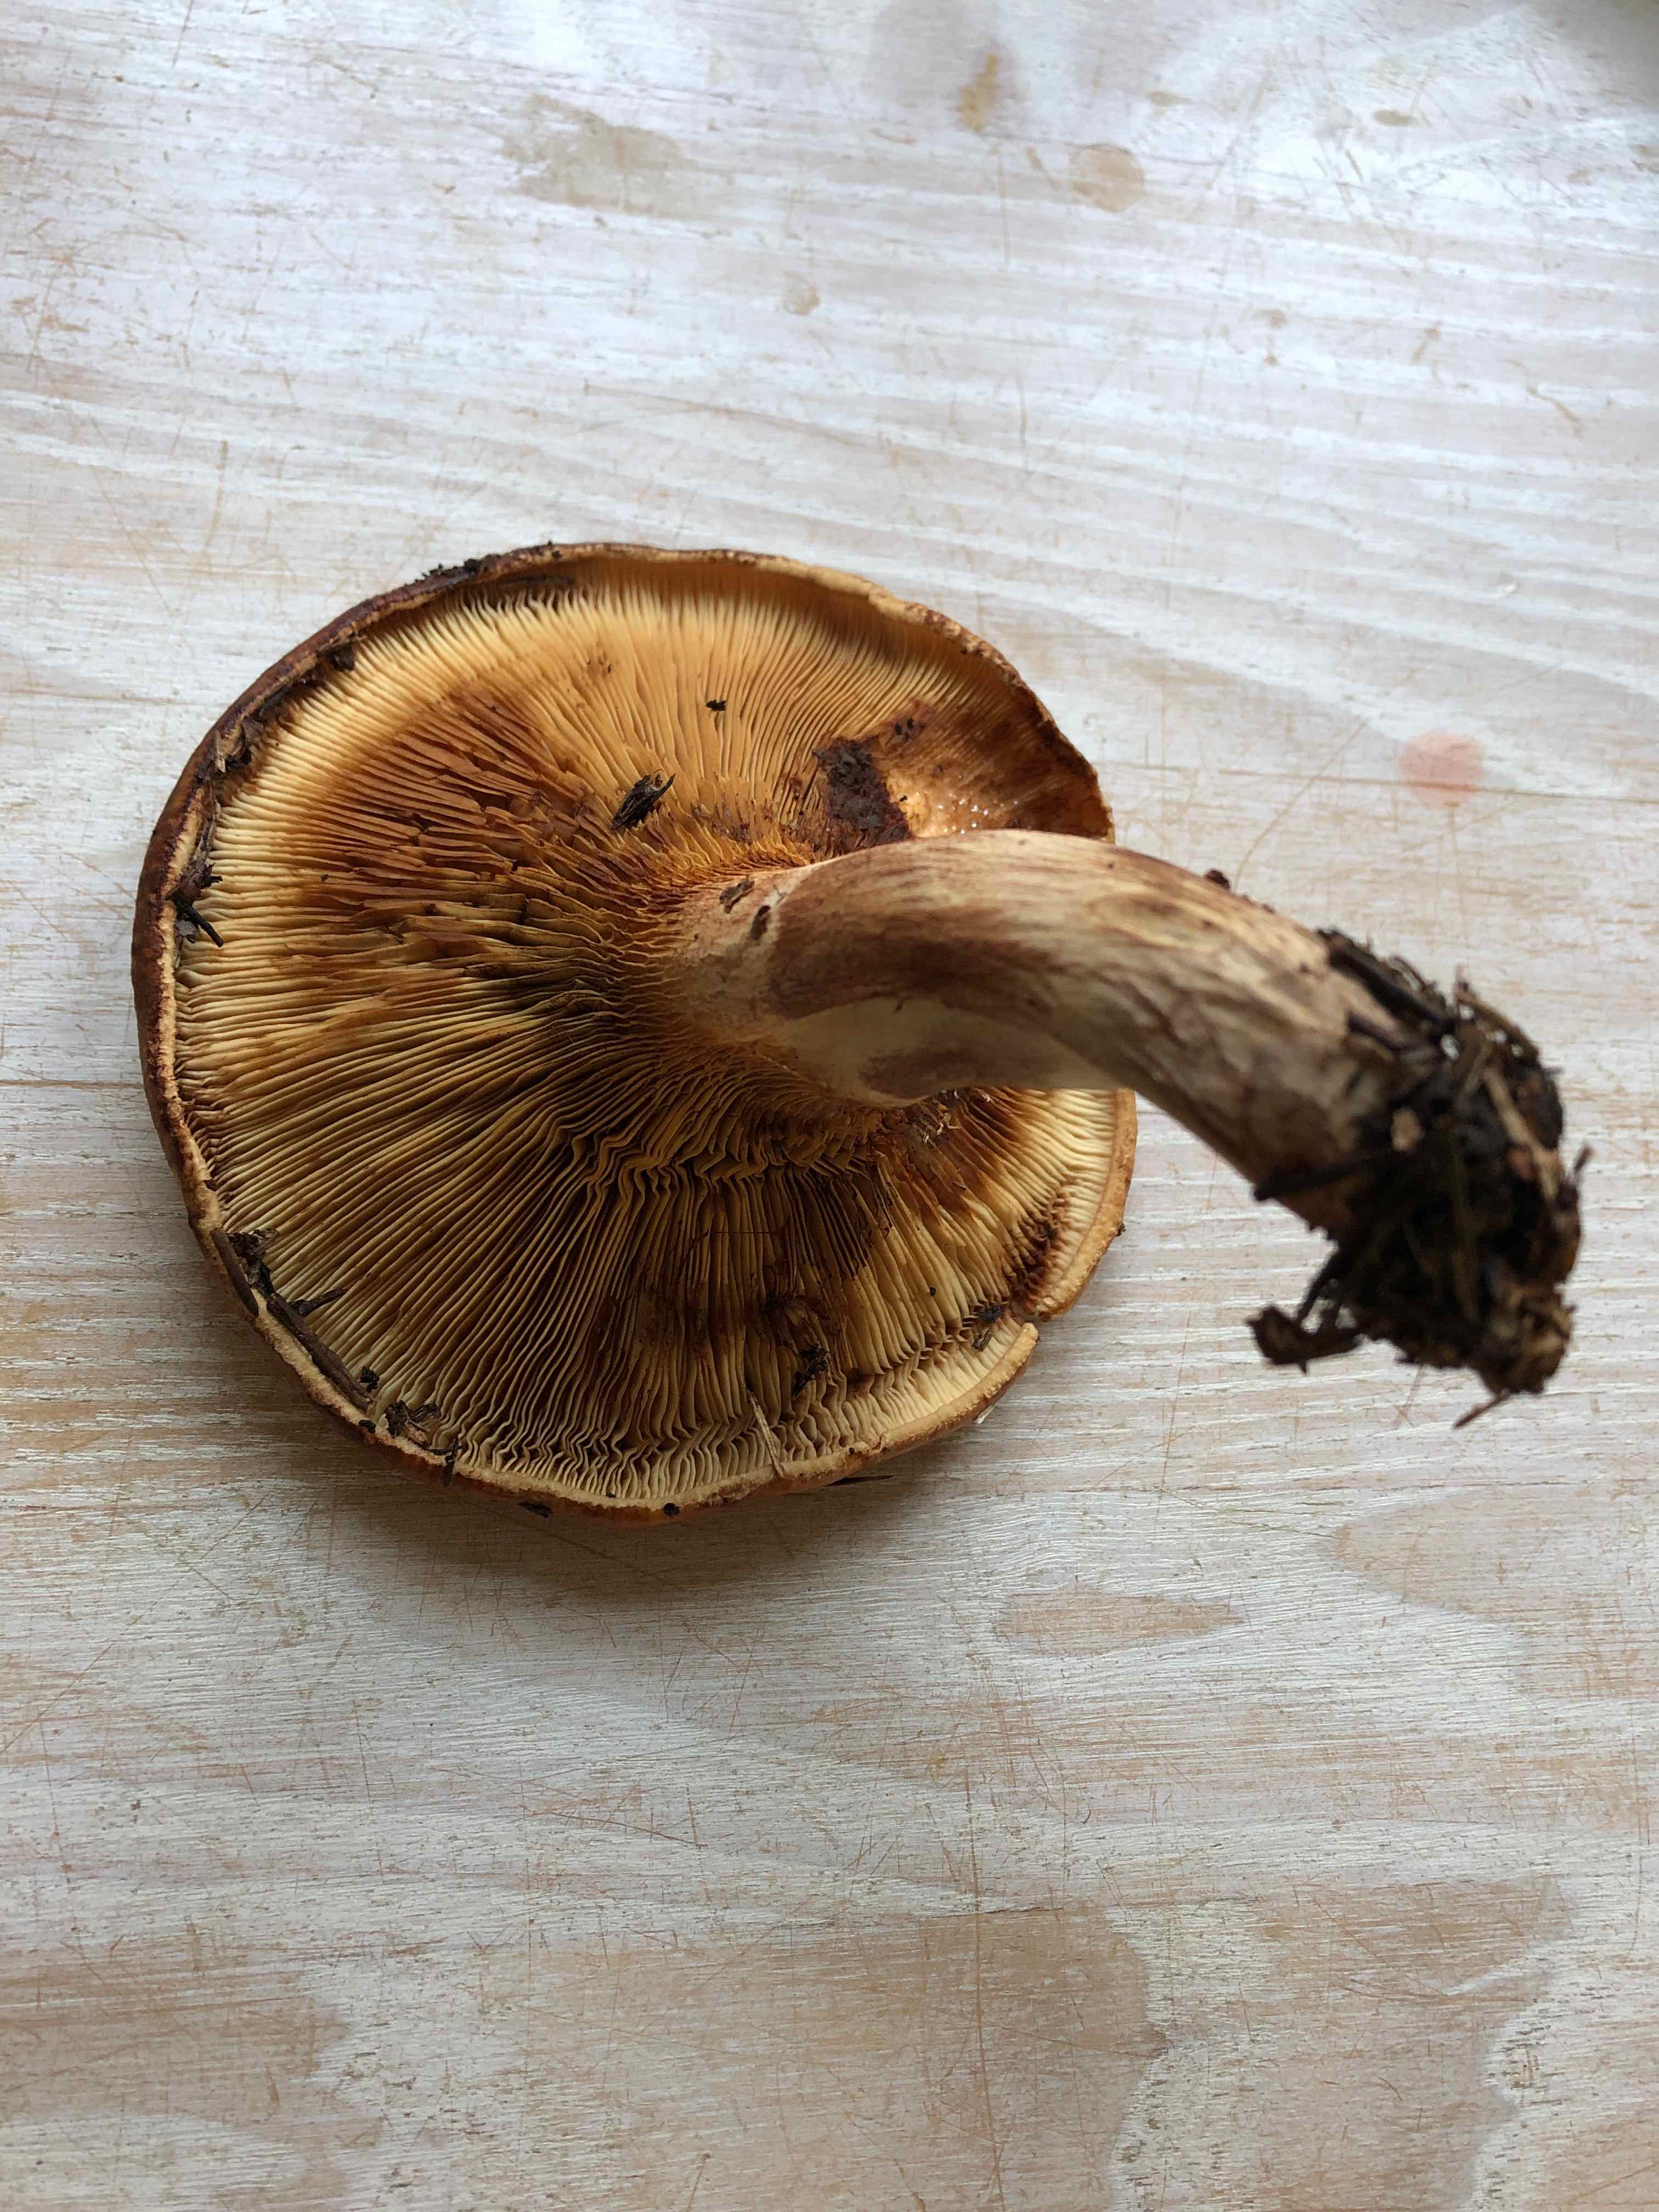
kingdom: Fungi
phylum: Basidiomycota
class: Agaricomycetes
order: Boletales
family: Paxillaceae
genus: Paxillus
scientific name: Paxillus involutus
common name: almindelig netbladhat
